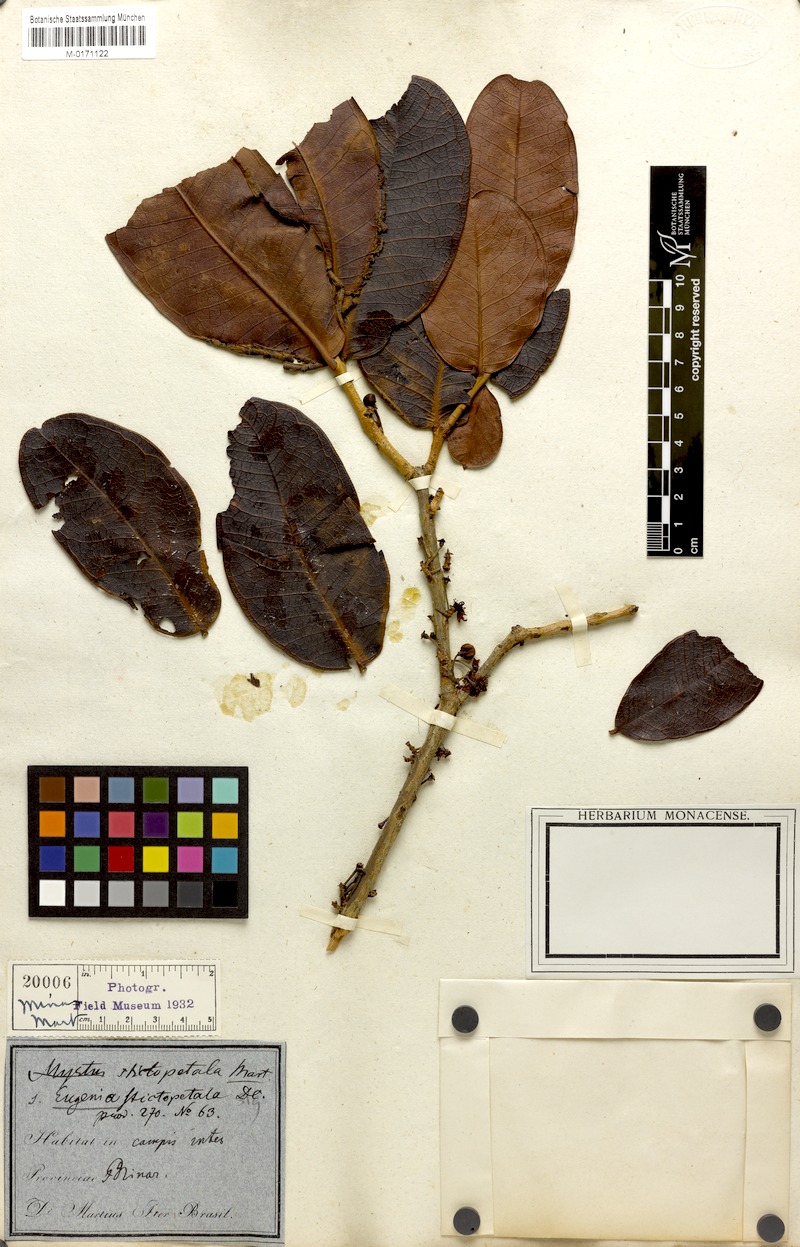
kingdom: Plantae
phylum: Tracheophyta
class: Magnoliopsida
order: Myrtales
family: Myrtaceae
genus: Eugenia
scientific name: Eugenia stictopetala
